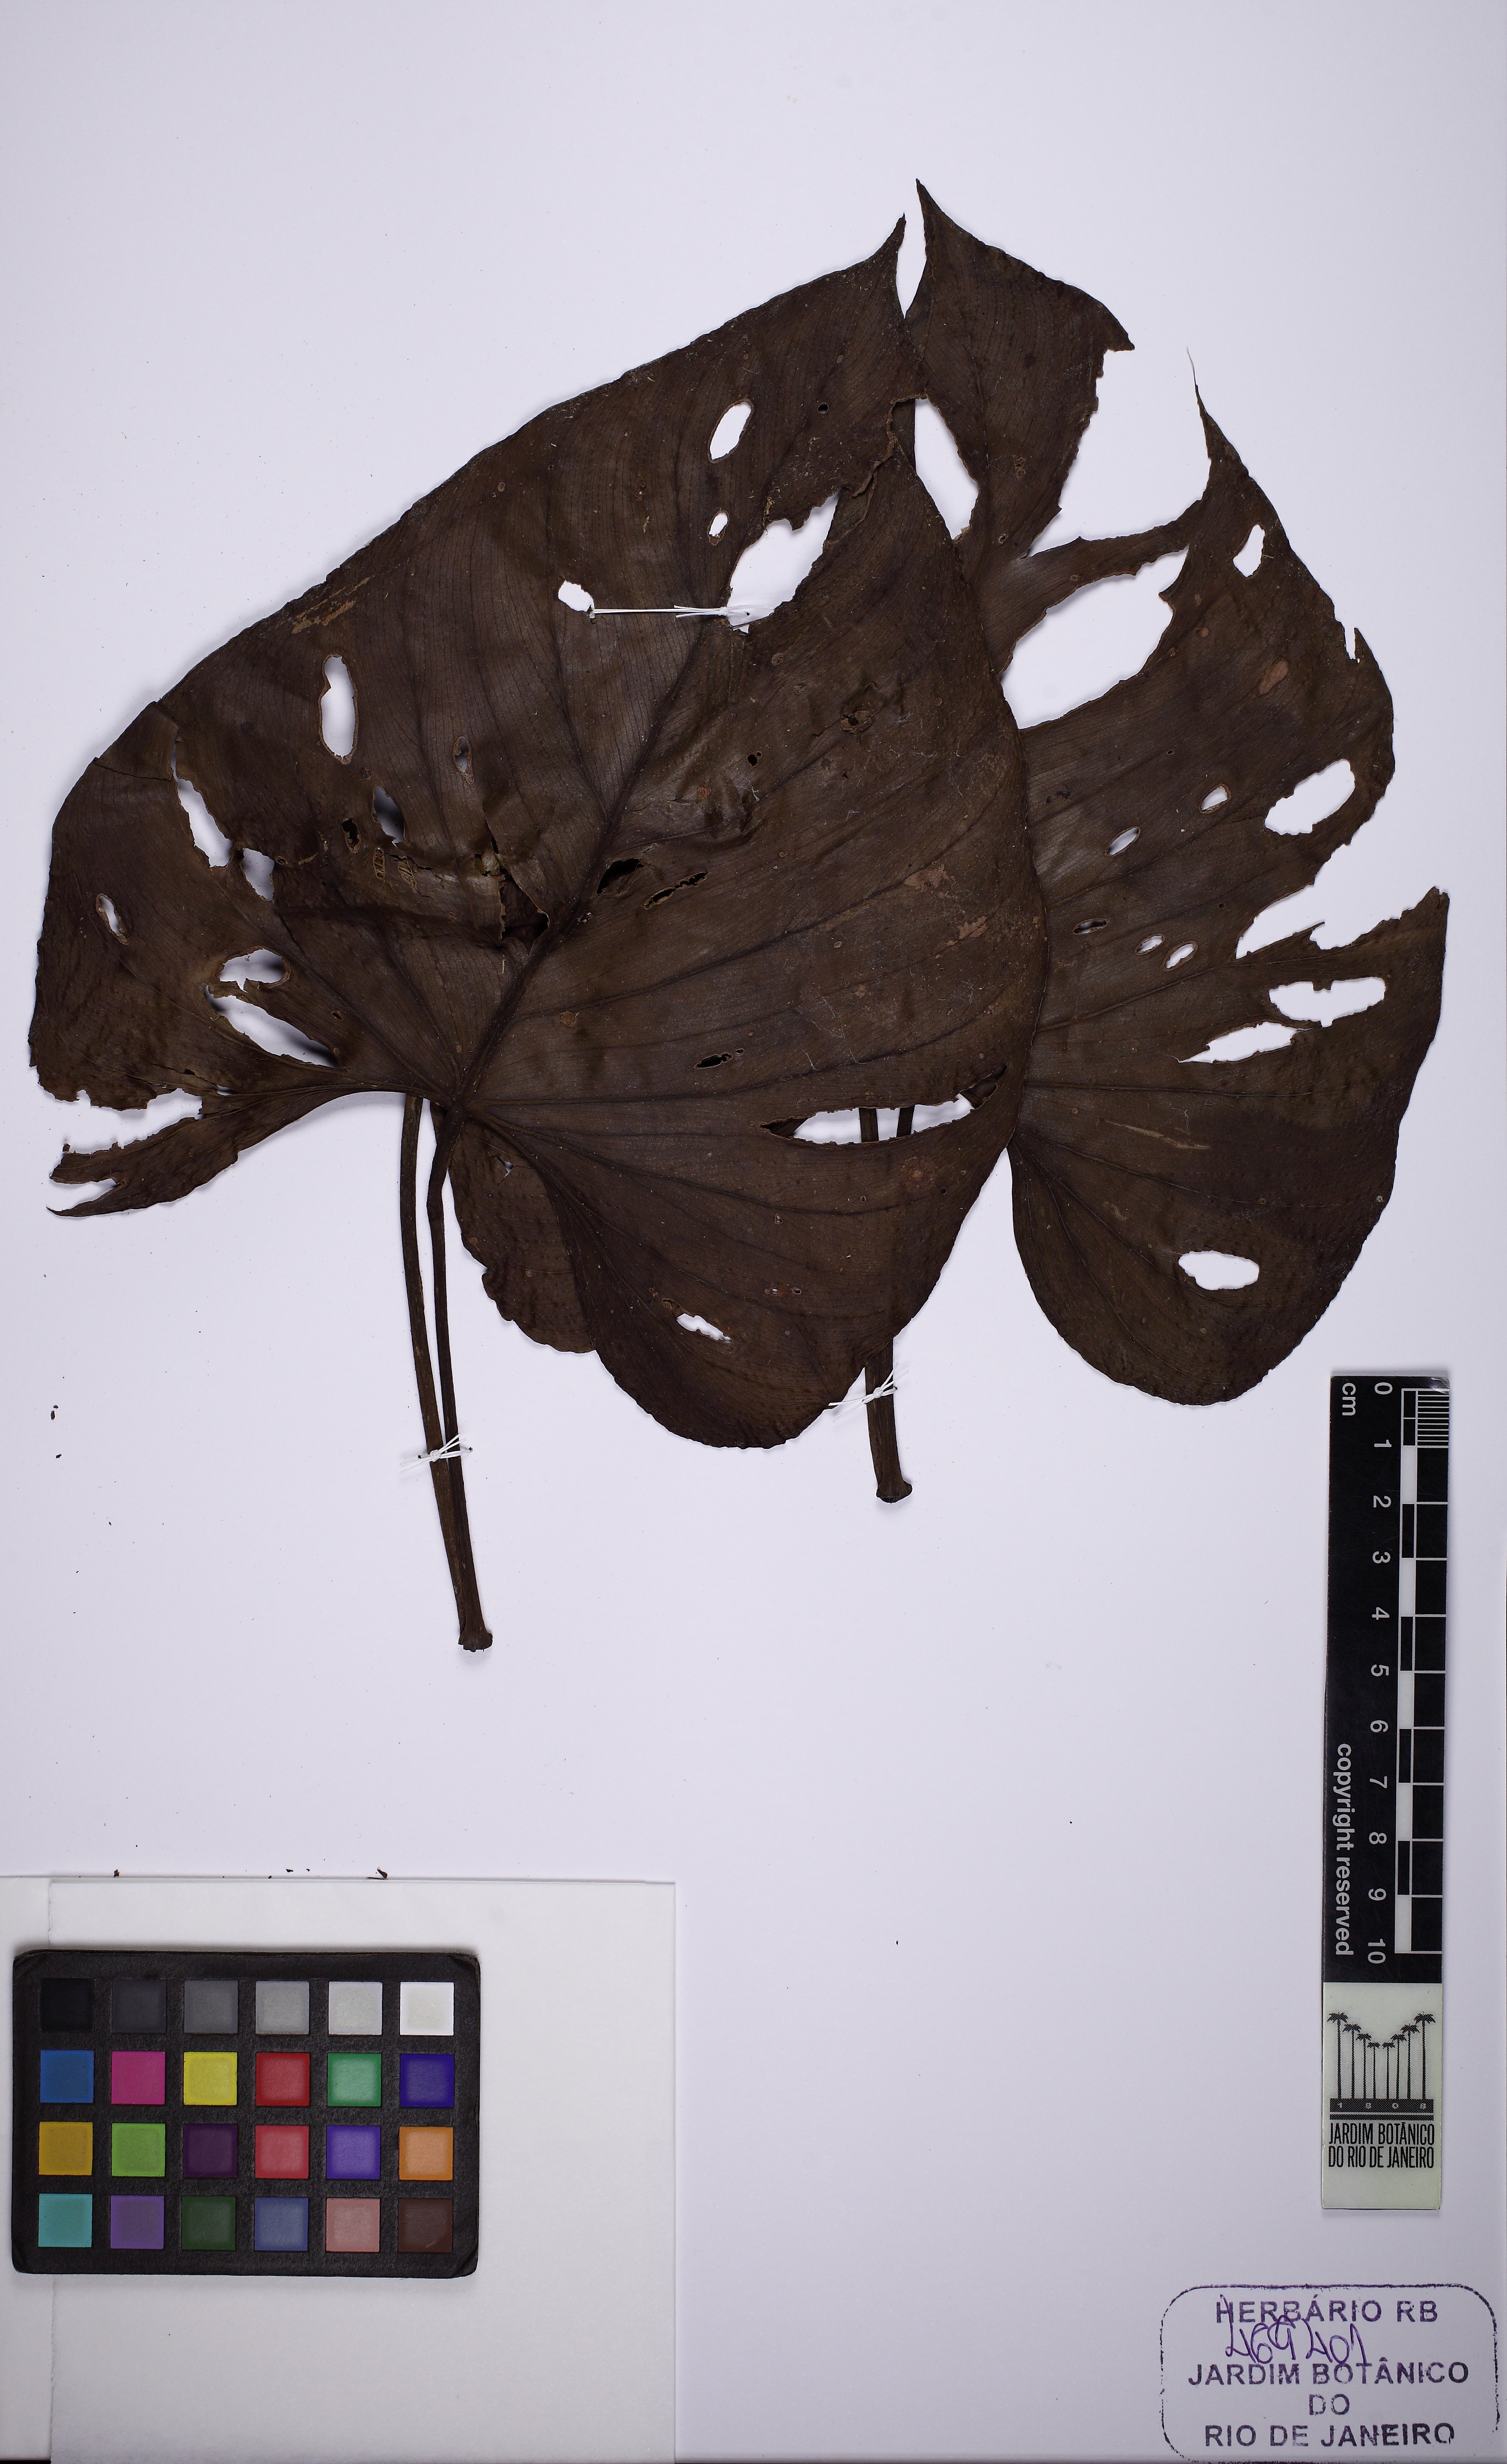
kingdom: Plantae
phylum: Tracheophyta
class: Liliopsida
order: Alismatales
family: Araceae
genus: Philodendron
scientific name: Philodendron brandtianum
